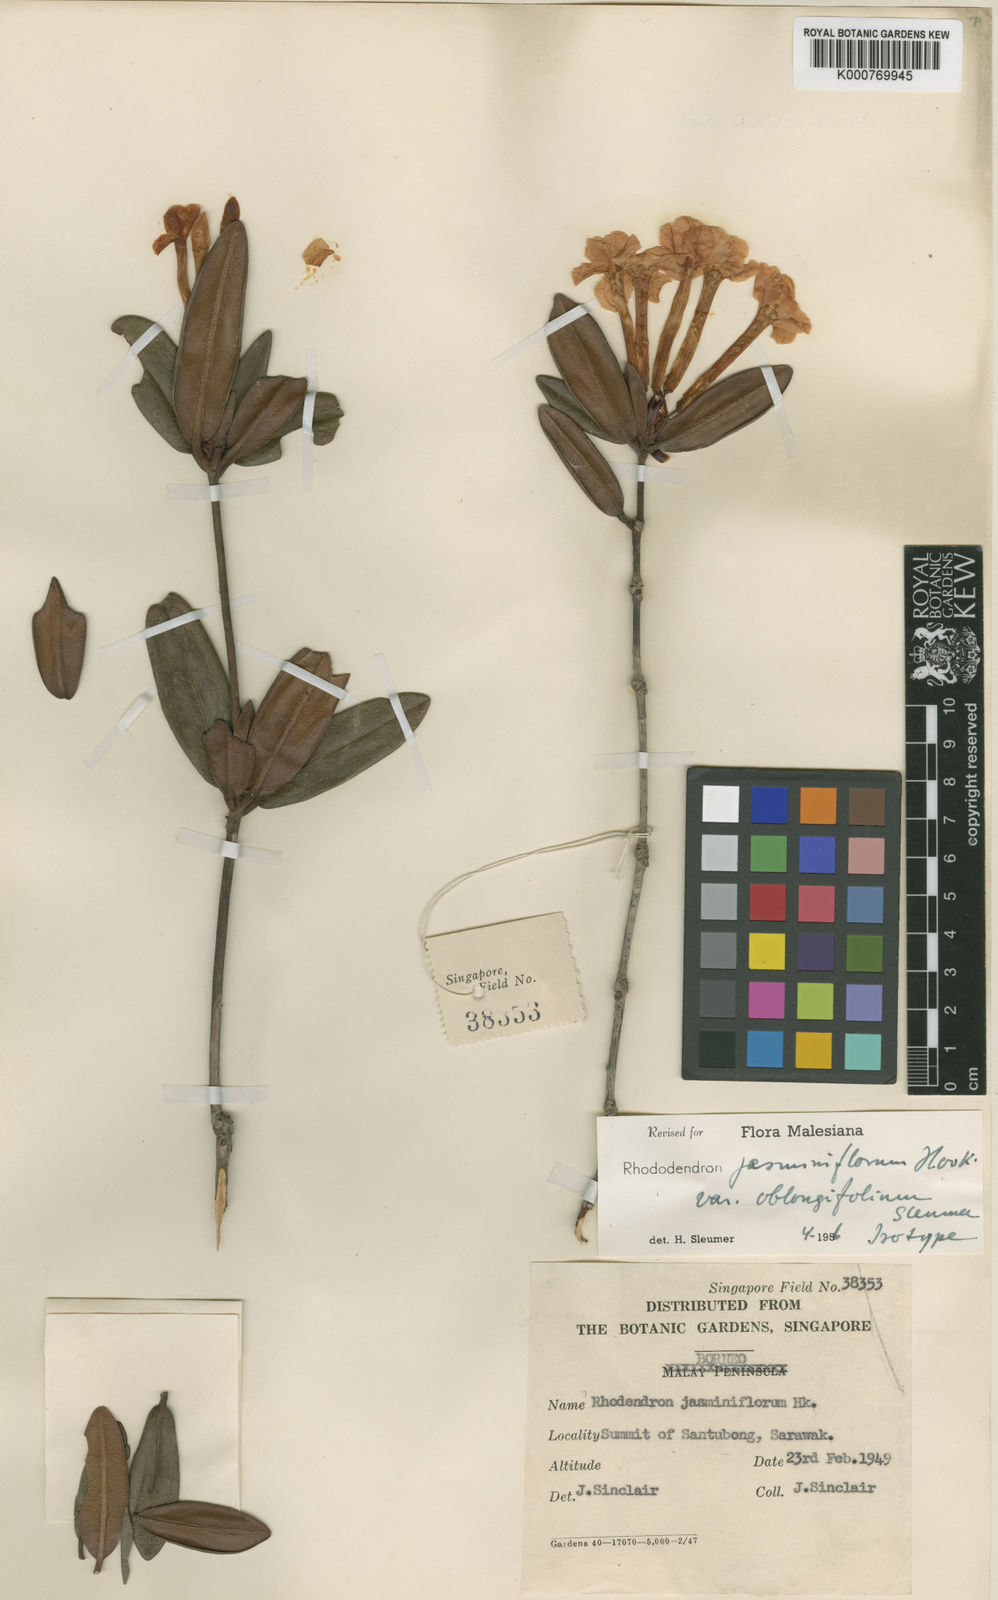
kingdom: Plantae
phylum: Tracheophyta
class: Magnoliopsida
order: Ericales
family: Ericaceae
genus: Rhododendron
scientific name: Rhododendron jasminiflorum
